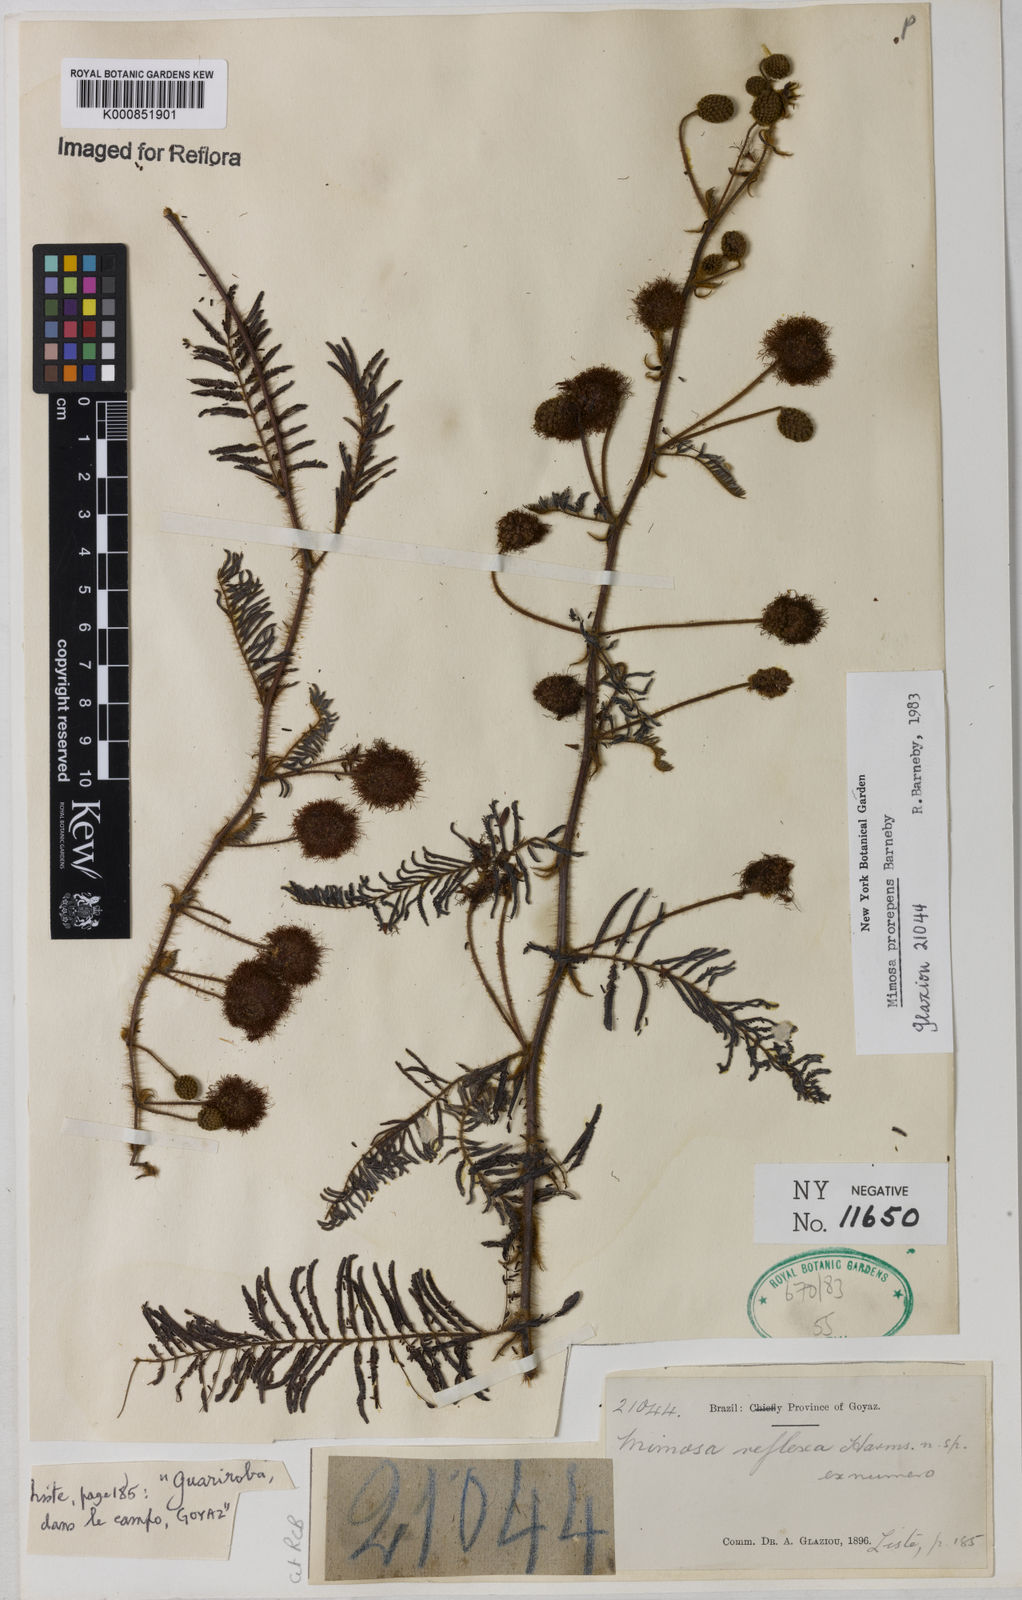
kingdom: Plantae
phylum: Tracheophyta
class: Magnoliopsida
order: Fabales
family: Fabaceae
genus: Mimosa
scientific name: Mimosa prorepens
